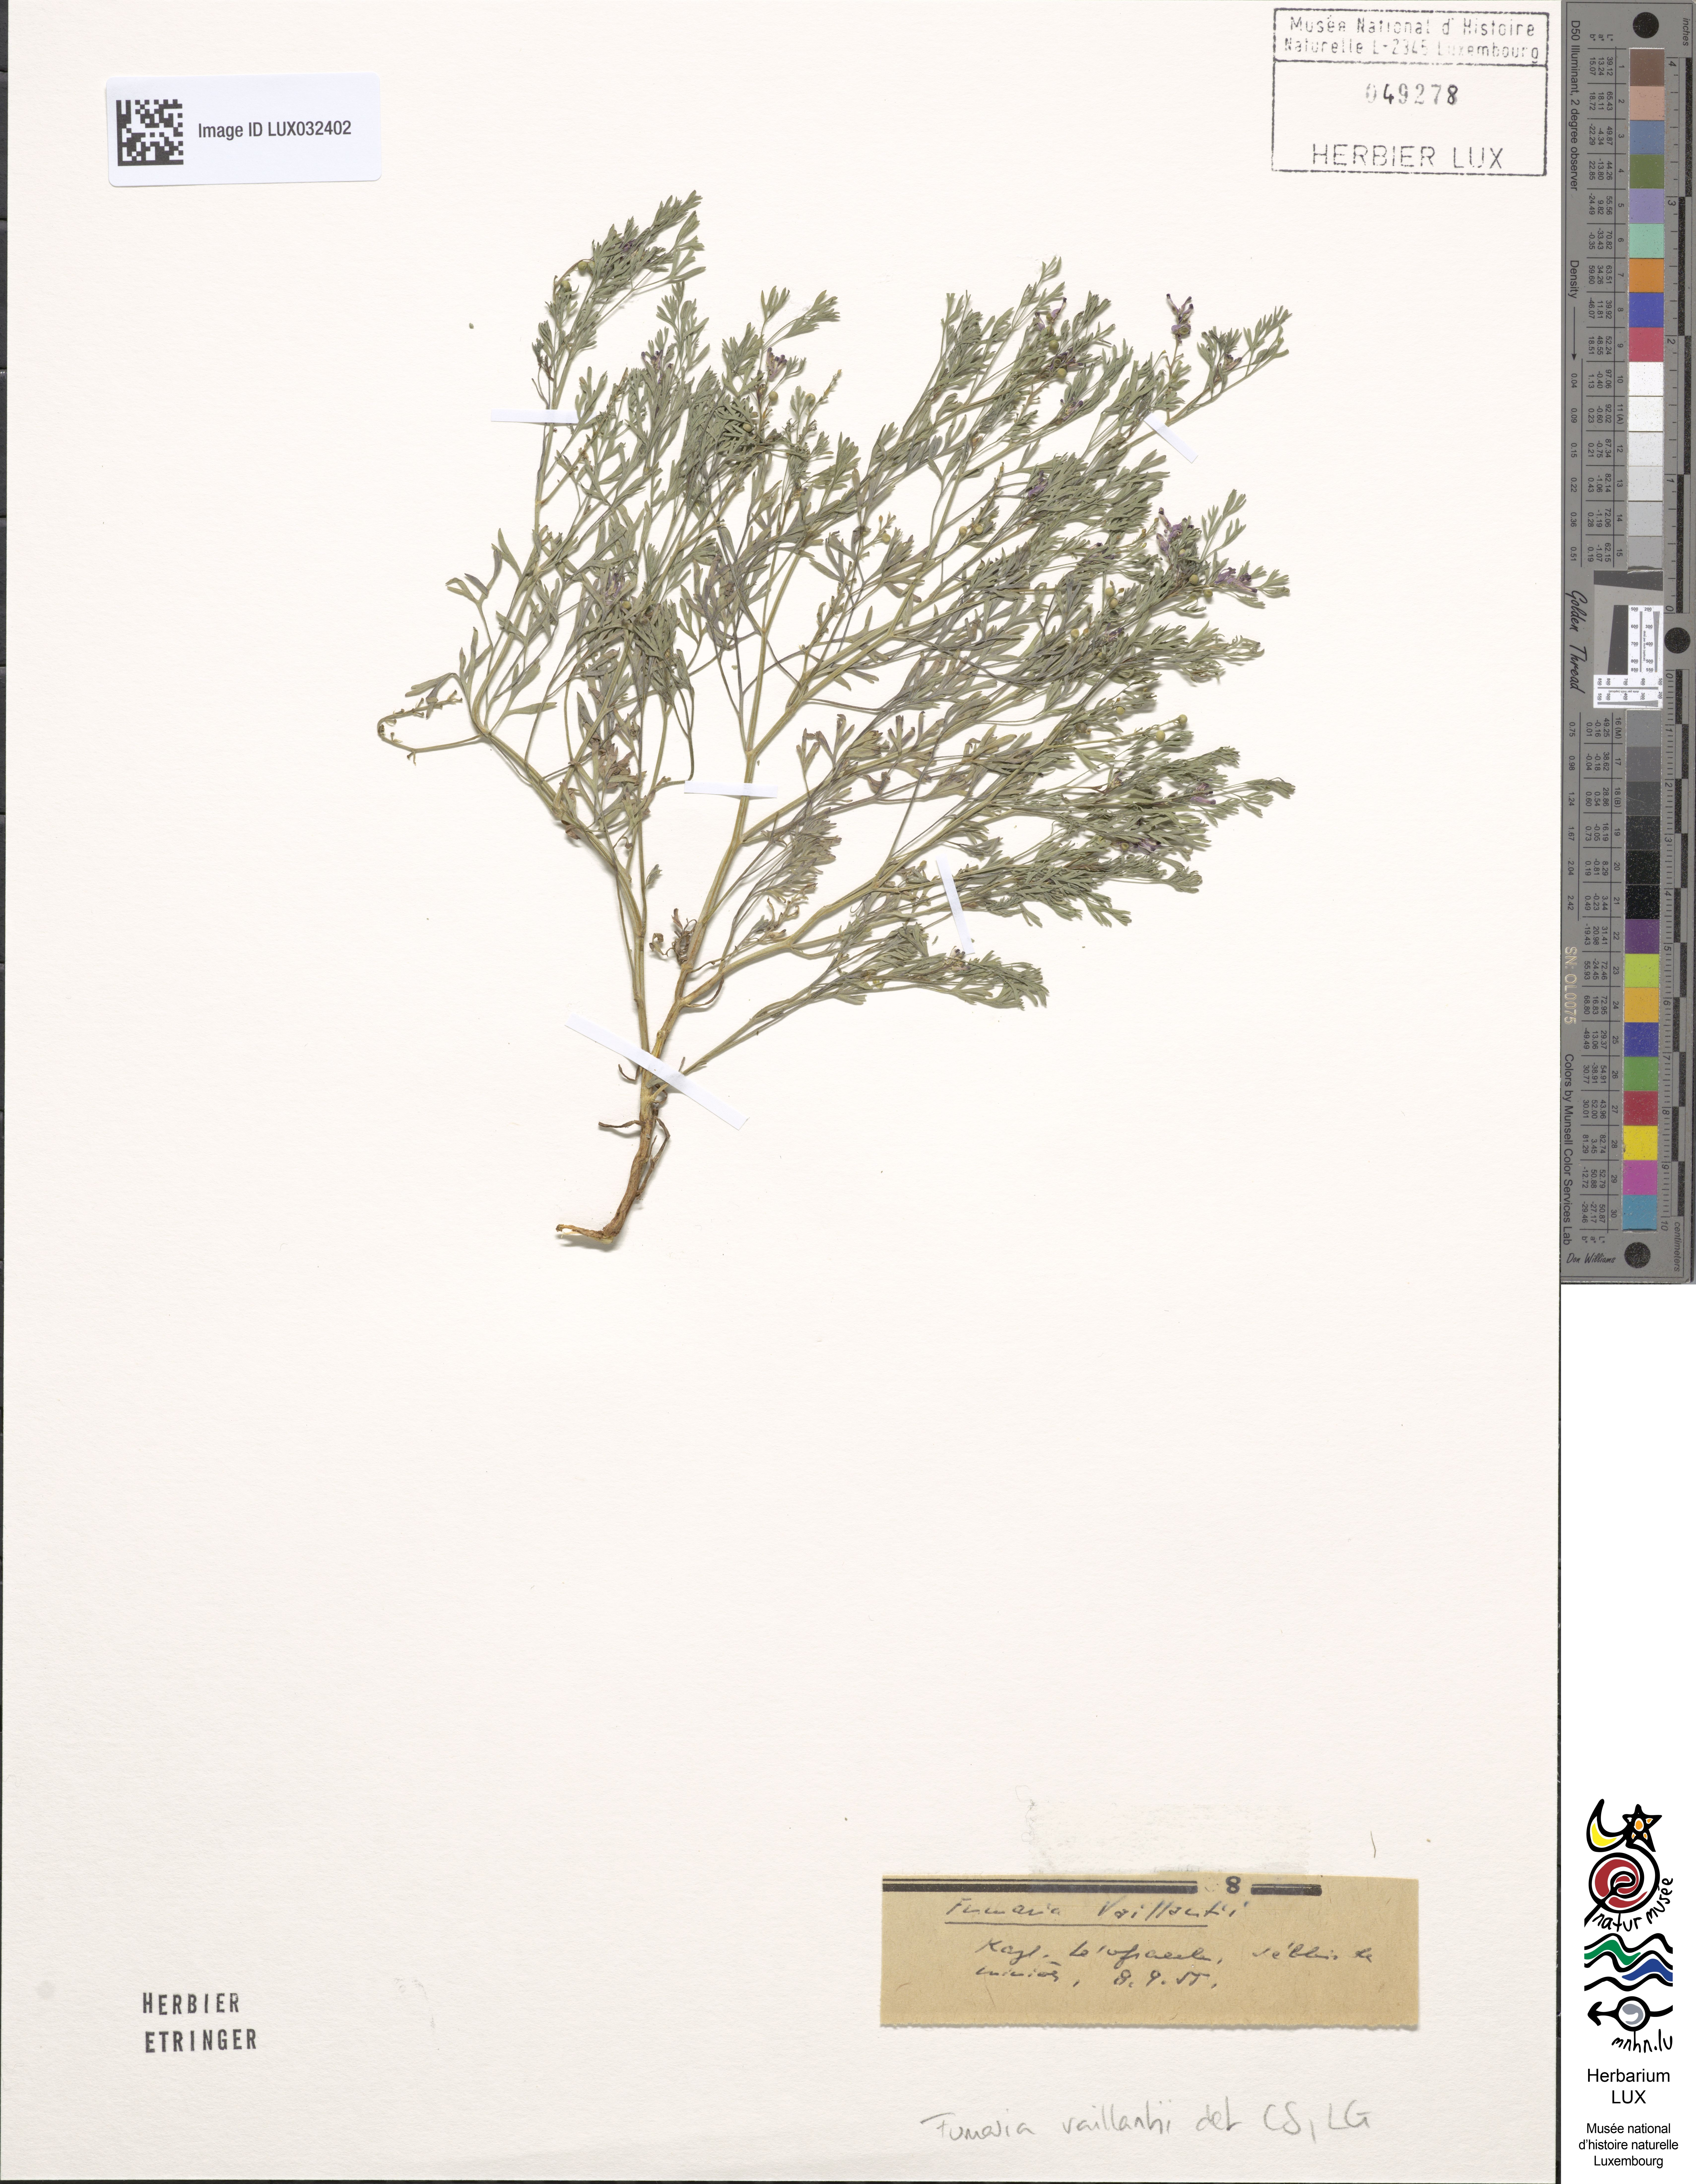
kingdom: Plantae
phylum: Tracheophyta
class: Magnoliopsida
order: Ranunculales
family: Papaveraceae
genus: Fumaria
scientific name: Fumaria vaillantii
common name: Few-flowered fumitory
